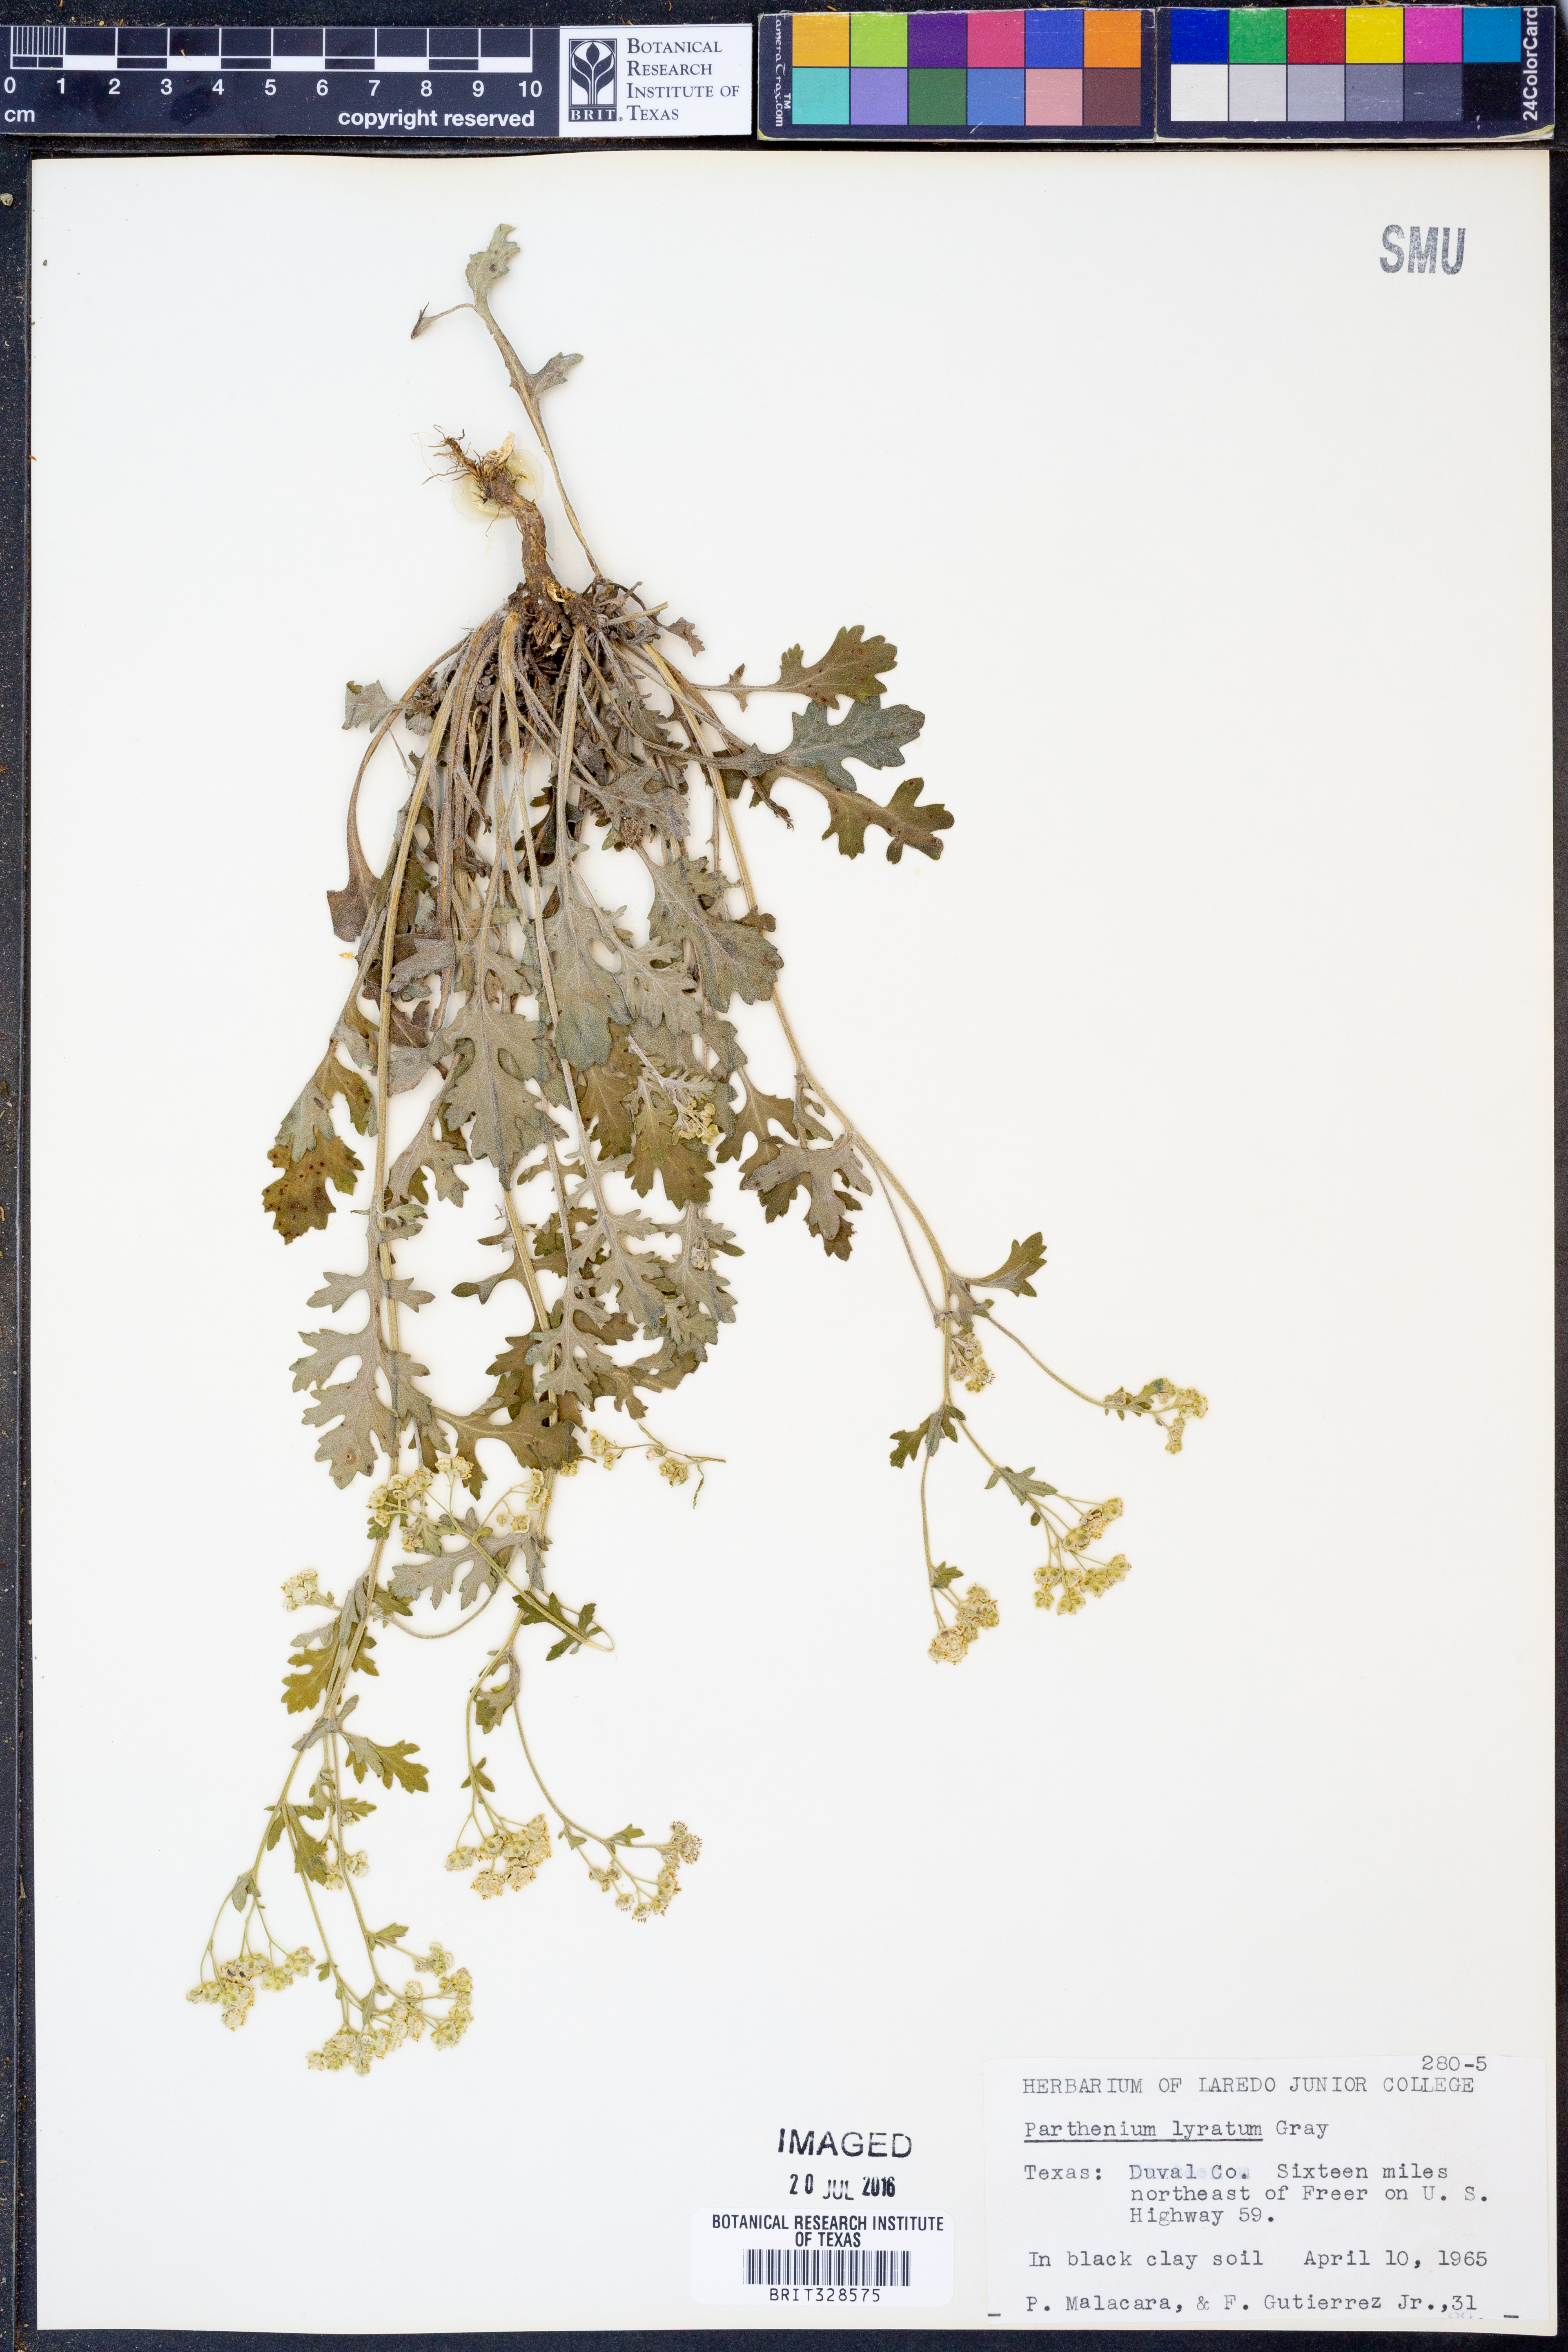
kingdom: Plantae
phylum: Tracheophyta
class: Magnoliopsida
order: Asterales
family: Asteraceae
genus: Parthenium
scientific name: Parthenium confertum
